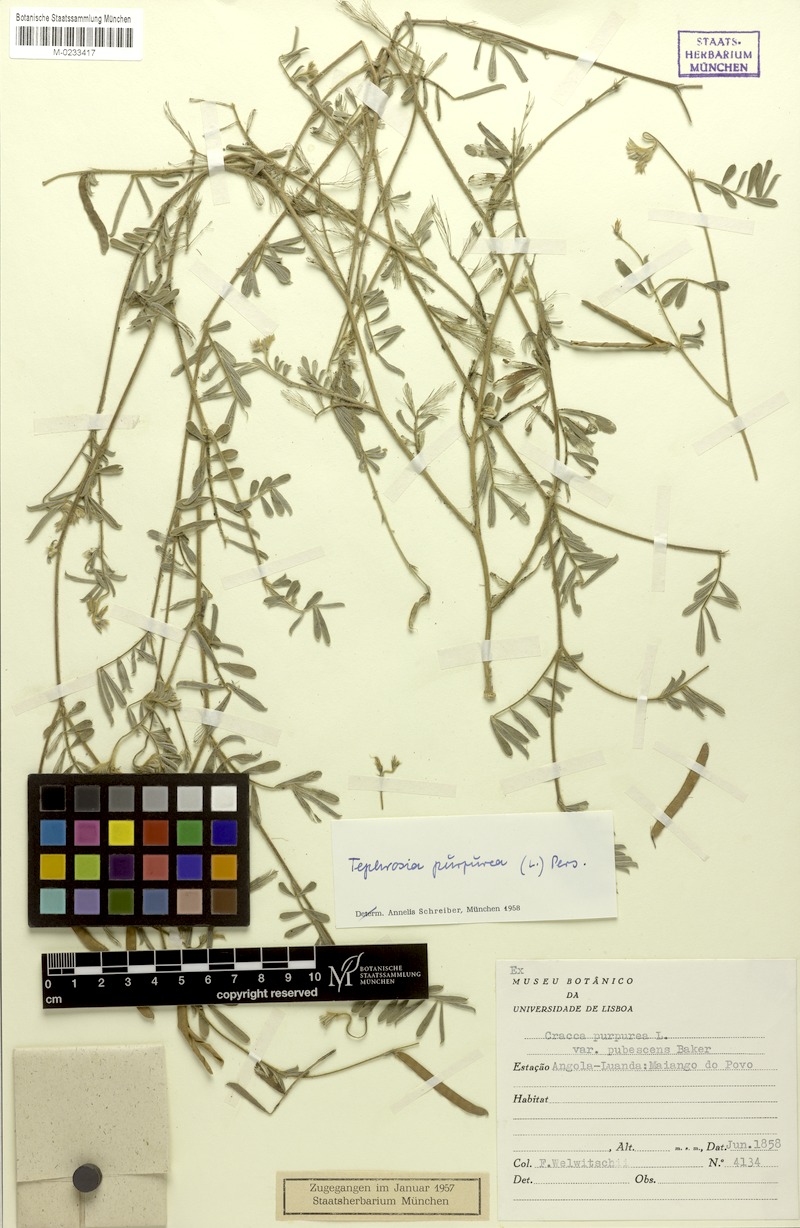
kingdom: Plantae
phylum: Tracheophyta
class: Magnoliopsida
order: Fabales
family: Fabaceae
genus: Tephrosia
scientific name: Tephrosia purpurea
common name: Fishpoison
